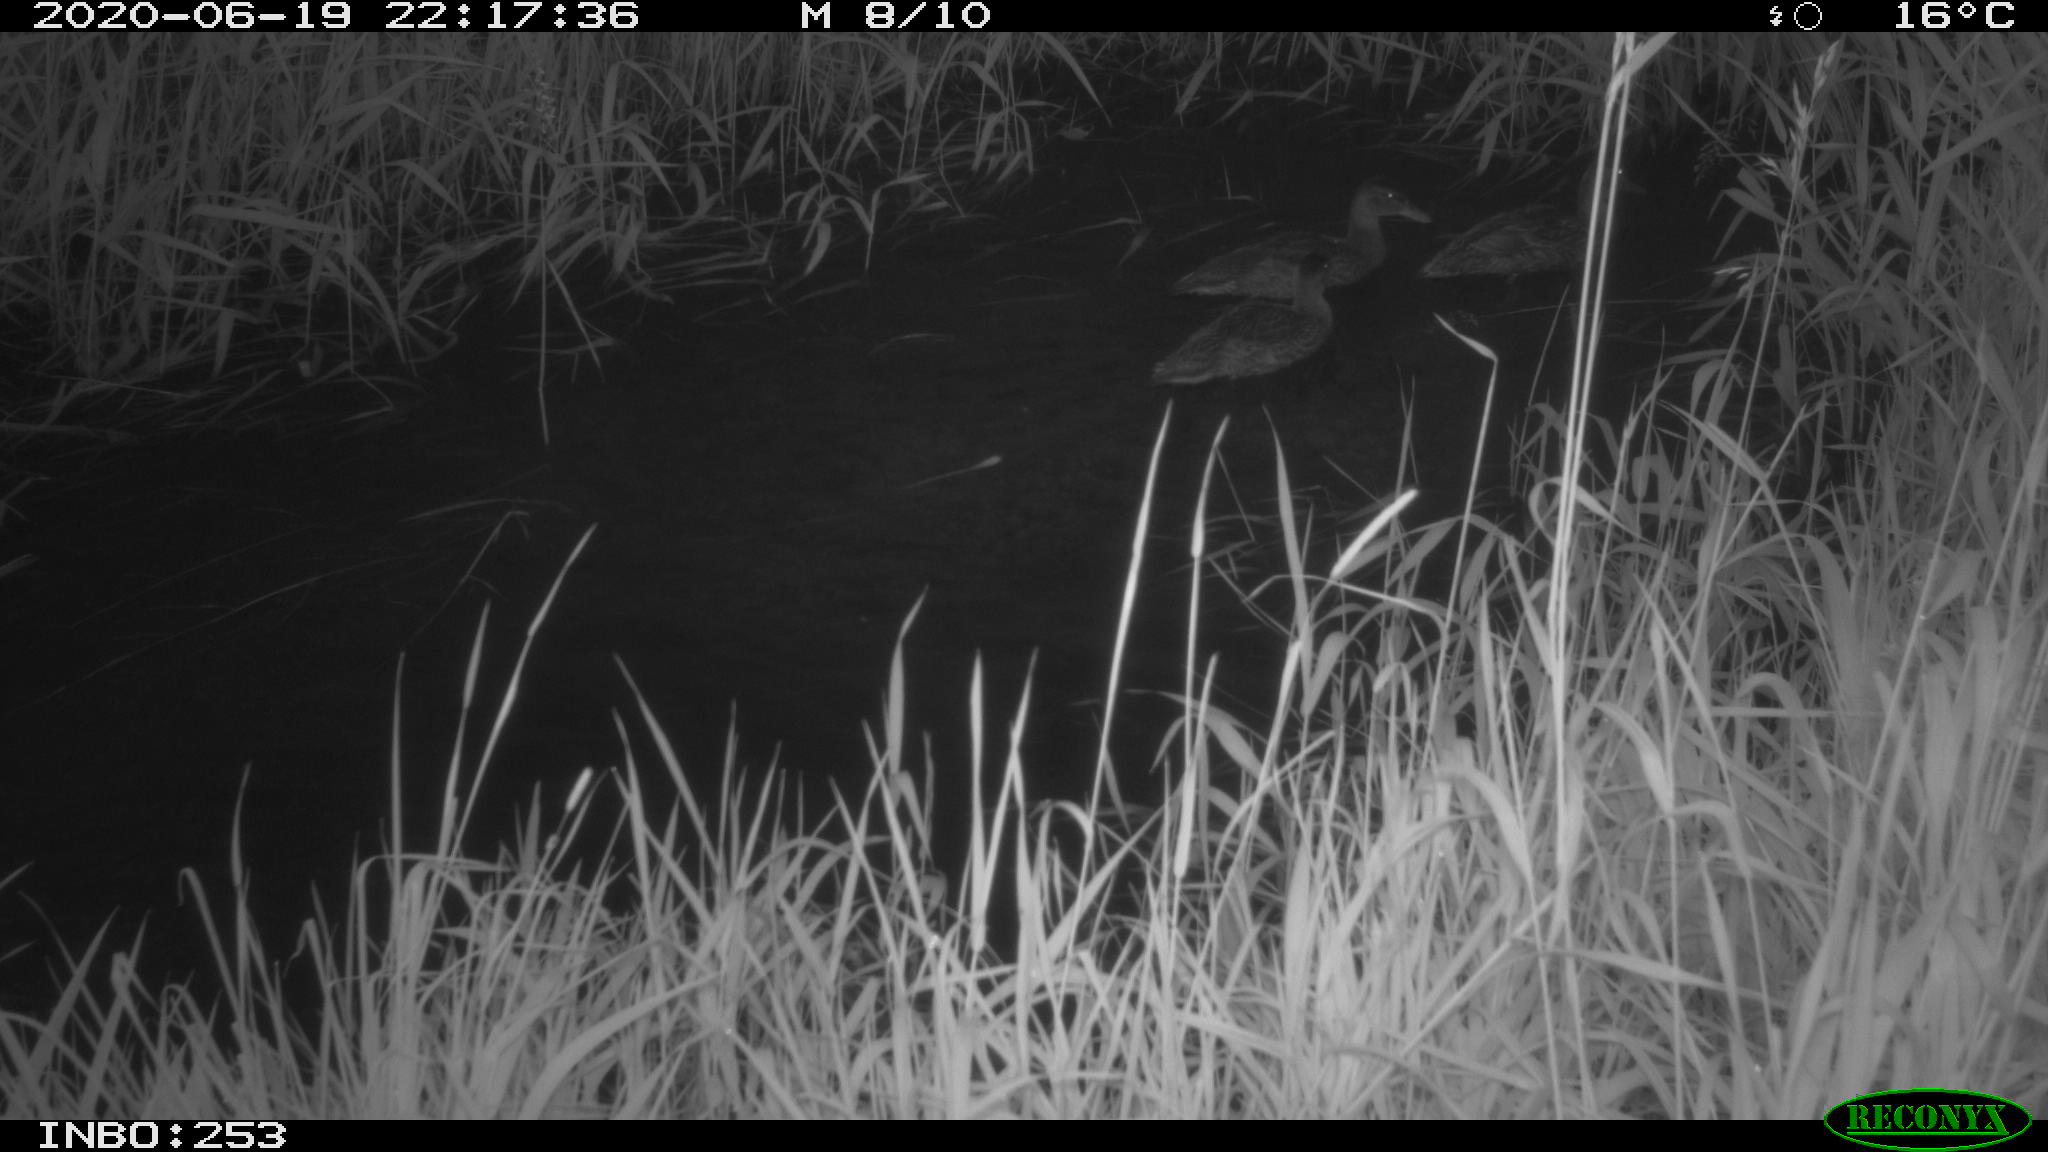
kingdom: Animalia
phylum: Chordata
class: Aves
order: Anseriformes
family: Anatidae
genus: Anas
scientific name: Anas platyrhynchos
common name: Mallard
